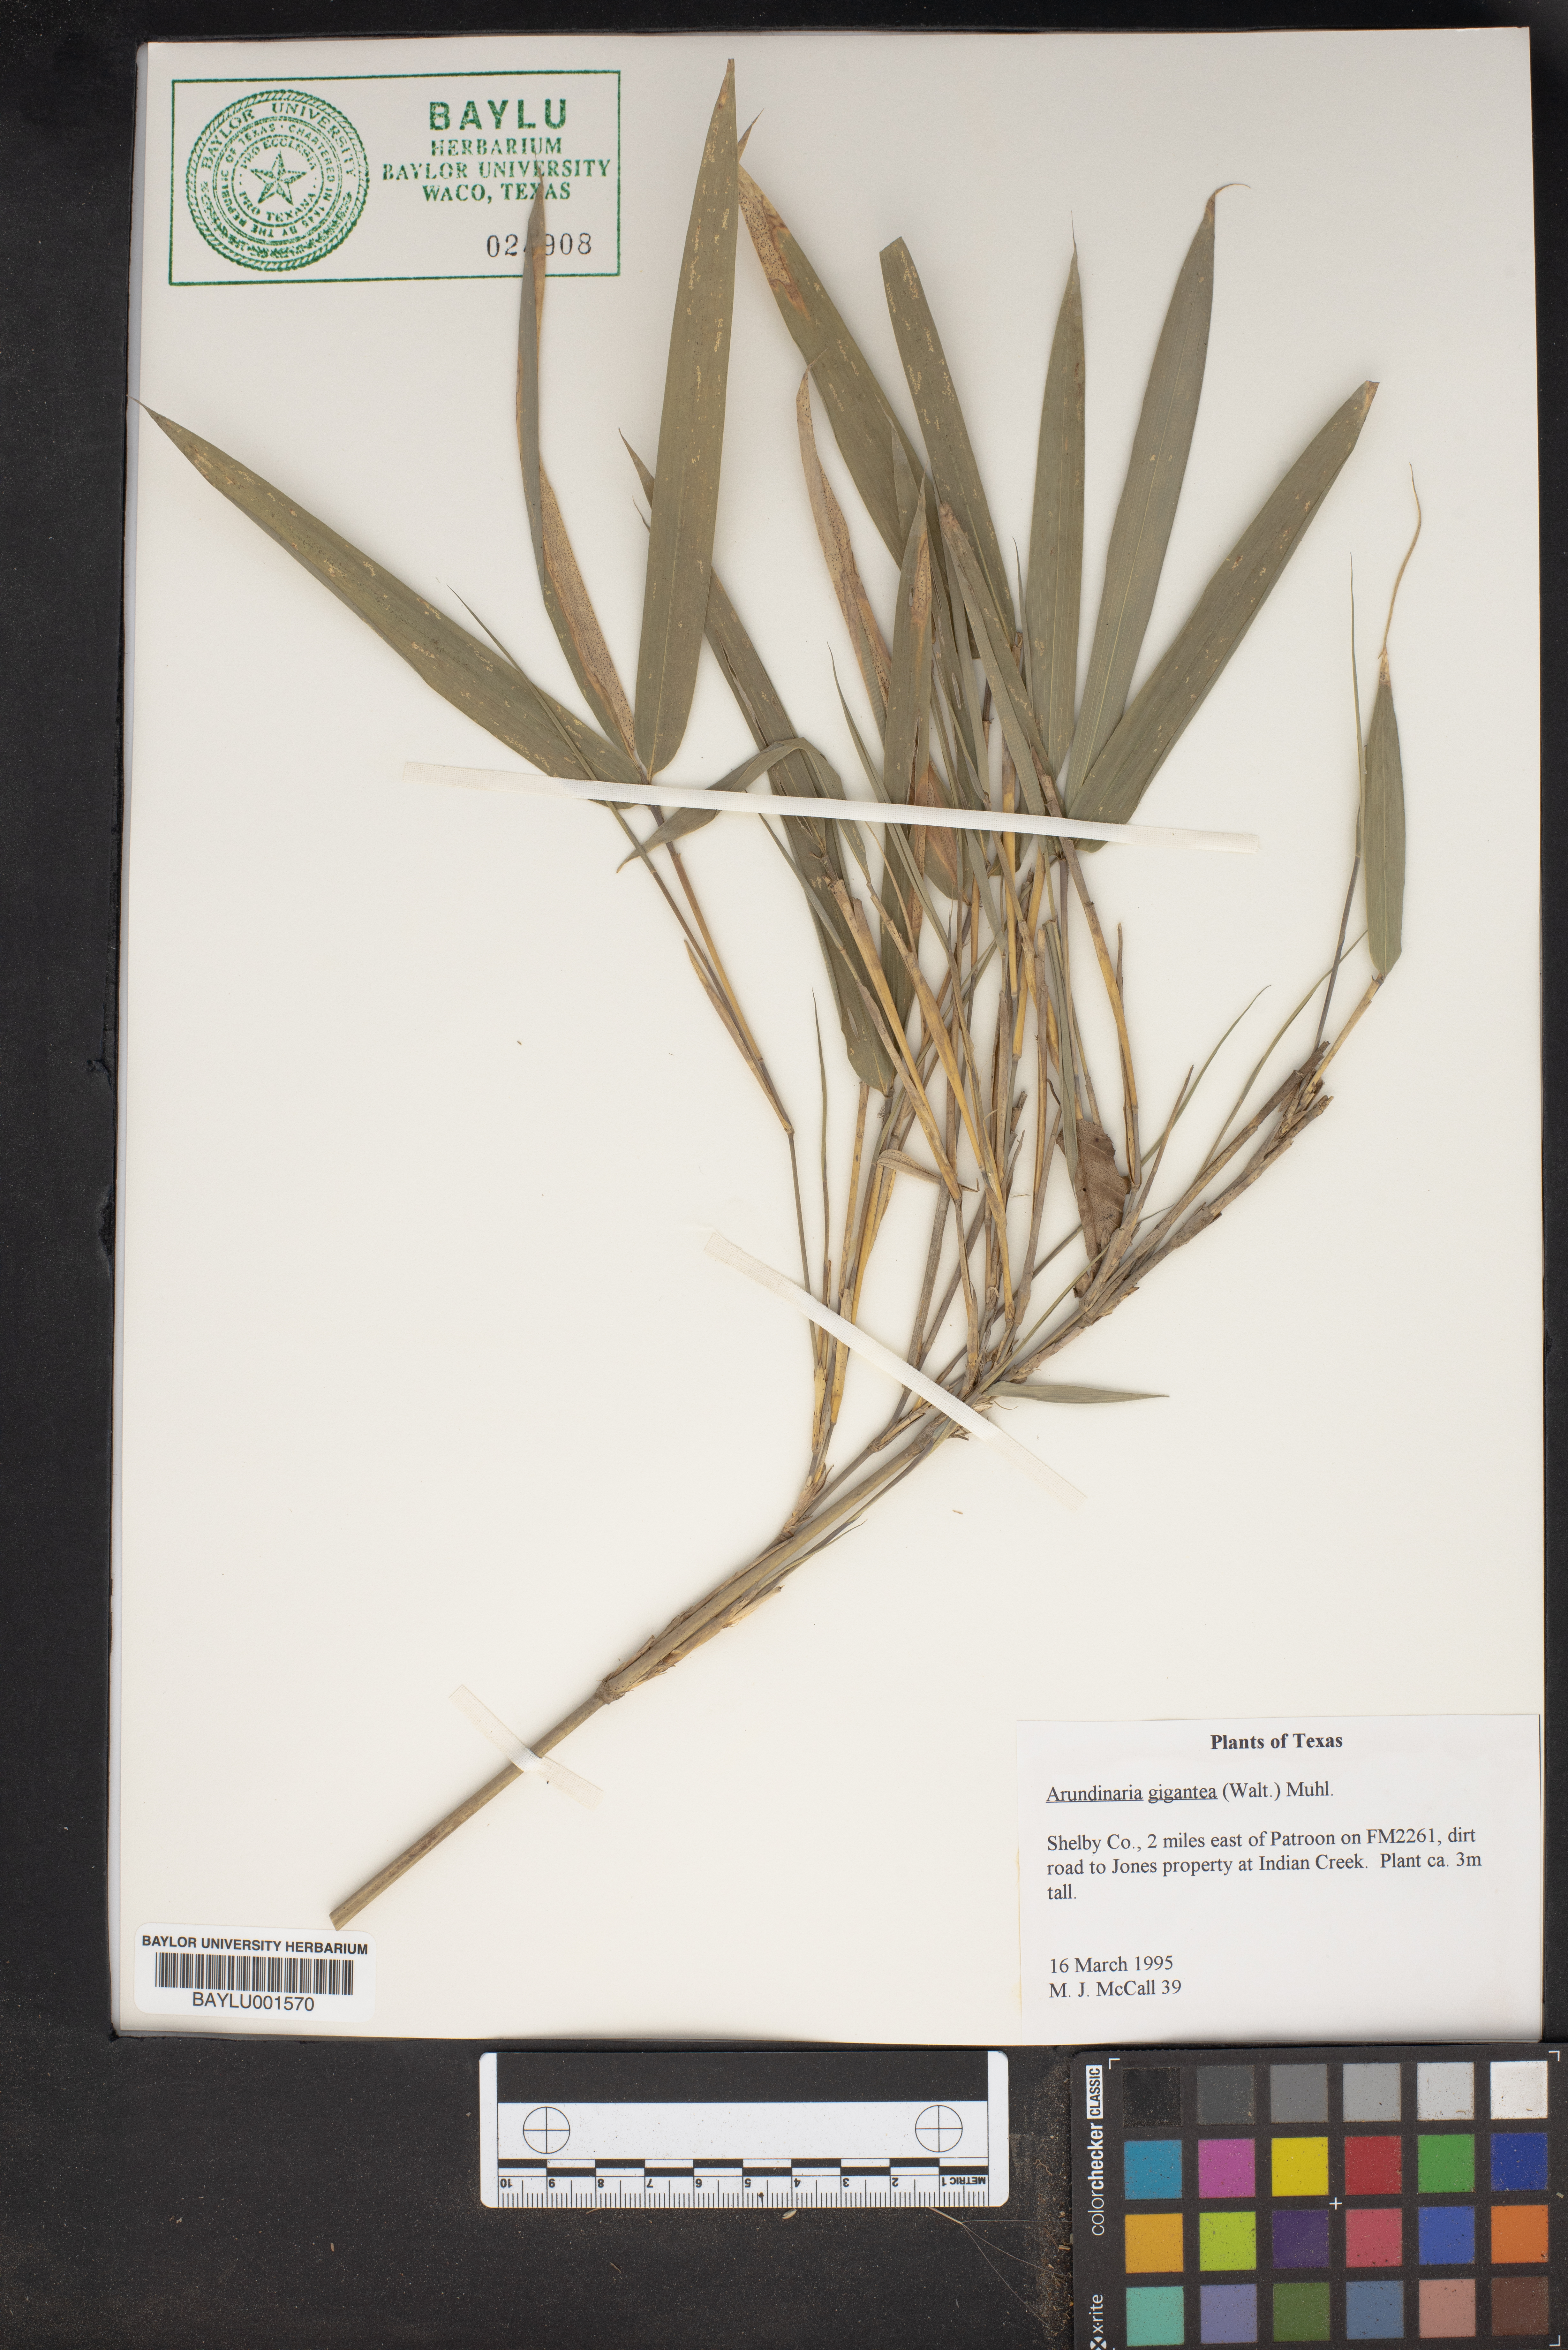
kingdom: Plantae
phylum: Tracheophyta
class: Liliopsida
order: Poales
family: Poaceae
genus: Arundinaria
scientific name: Arundinaria gigantea
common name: Giant cane
